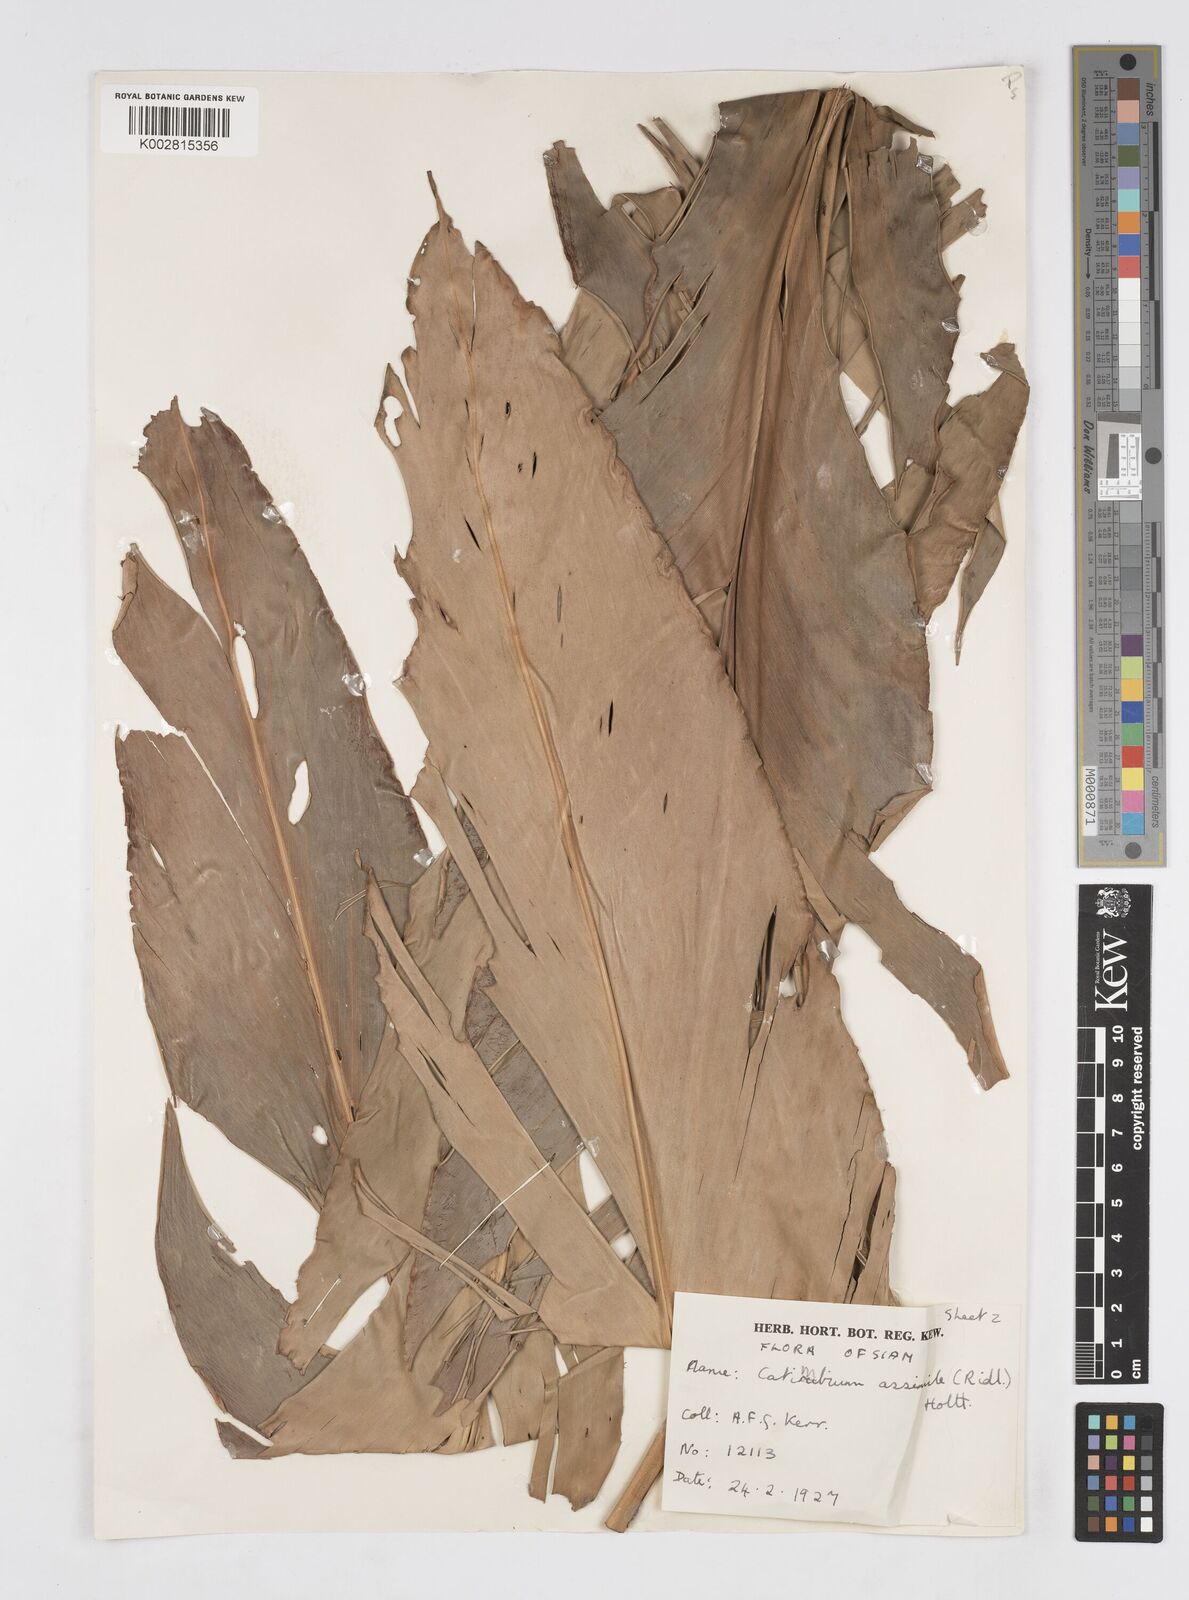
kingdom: Plantae
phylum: Tracheophyta
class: Liliopsida
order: Zingiberales
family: Zingiberaceae
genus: Alpinia
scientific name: Alpinia assimilis
